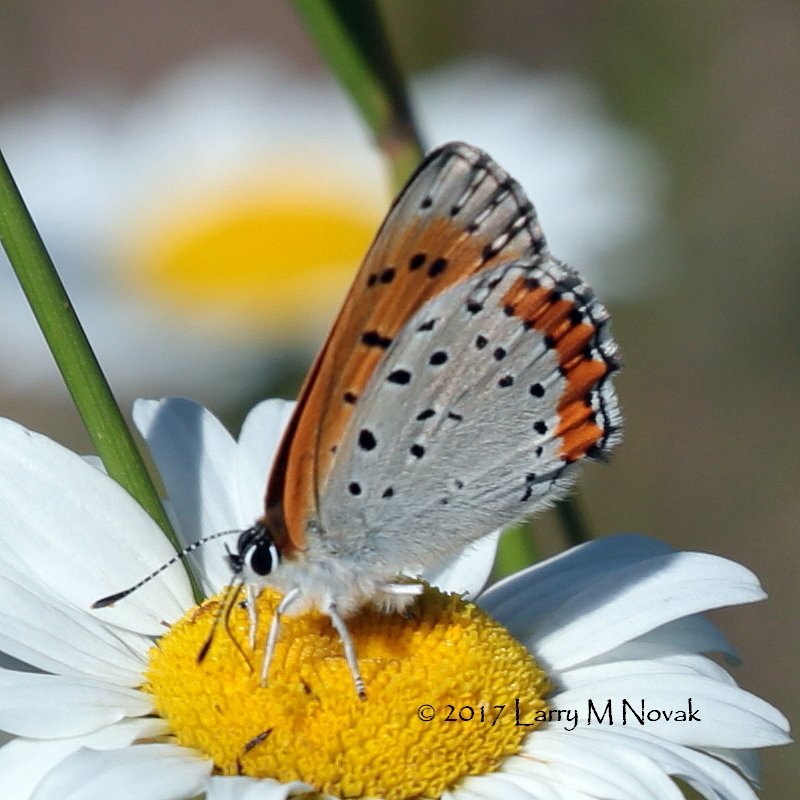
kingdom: Animalia
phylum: Arthropoda
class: Insecta
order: Lepidoptera
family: Sesiidae
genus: Sesia
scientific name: Sesia Lycaena hyllus
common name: Bronze Copper
